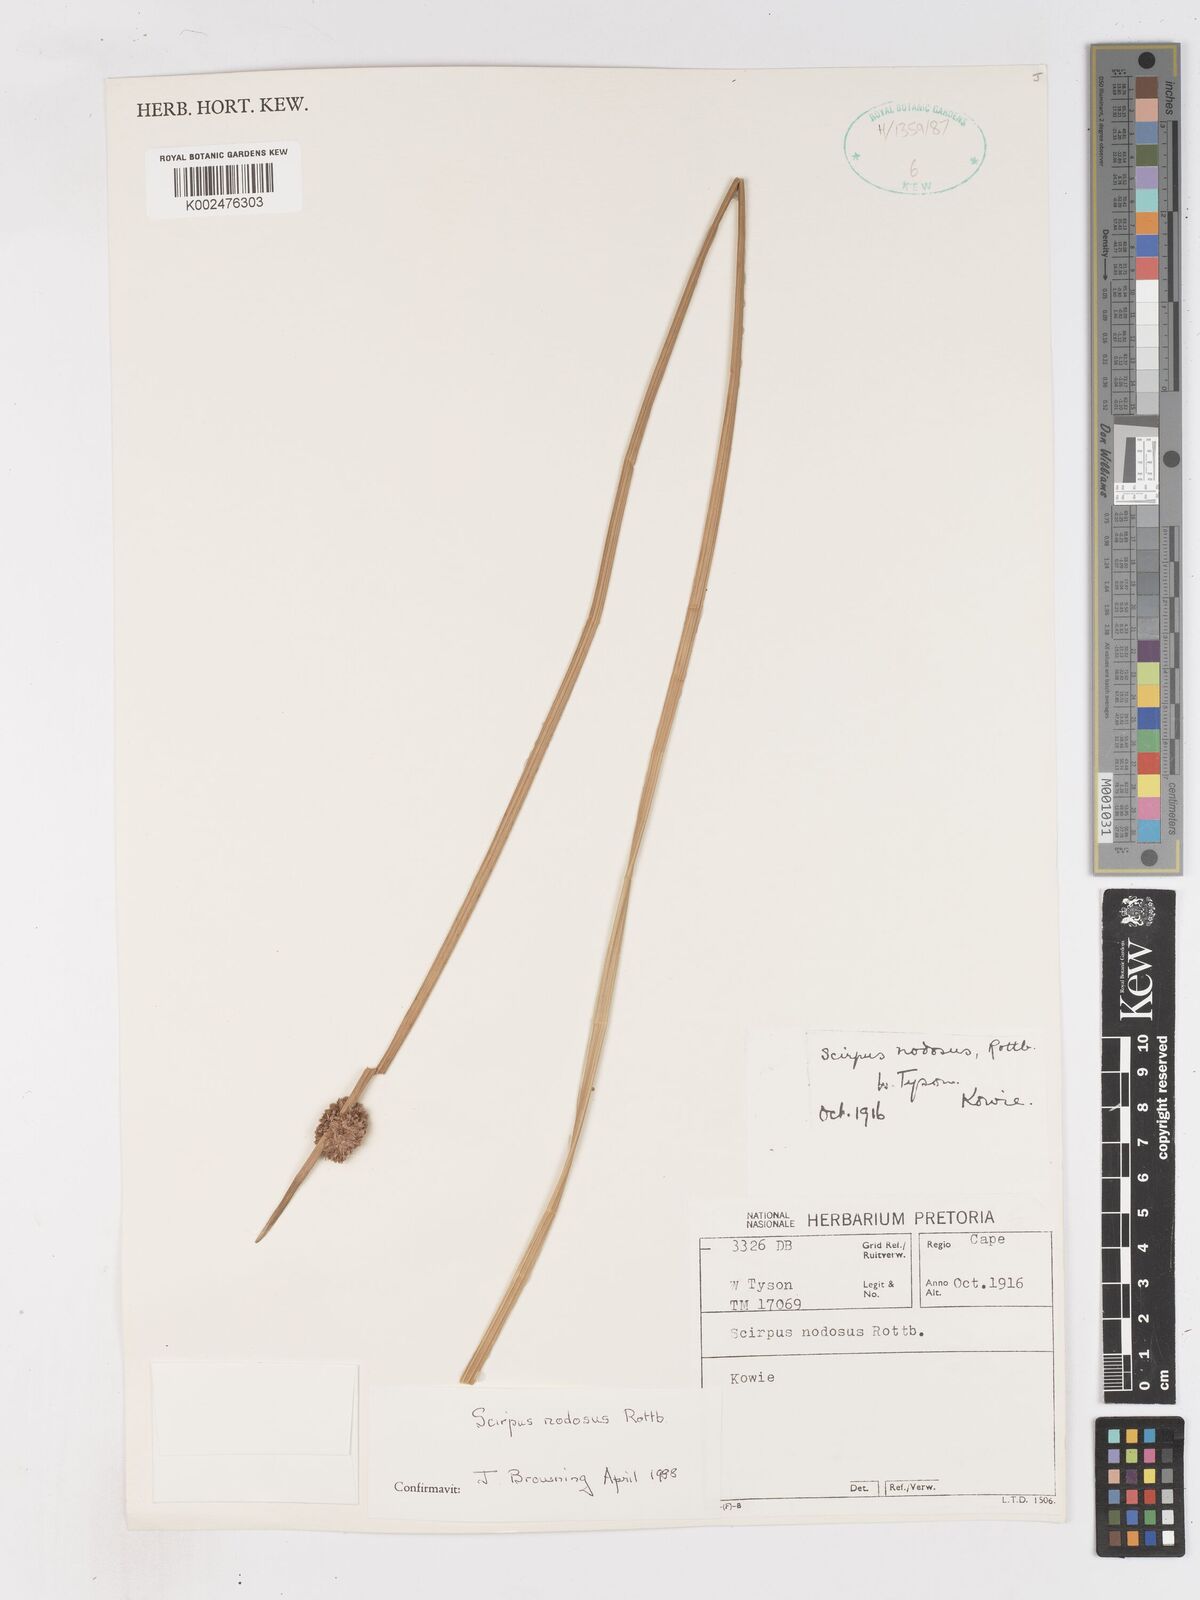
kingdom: Plantae
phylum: Tracheophyta
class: Liliopsida
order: Poales
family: Cyperaceae
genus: Ficinia
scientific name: Ficinia nodosa
